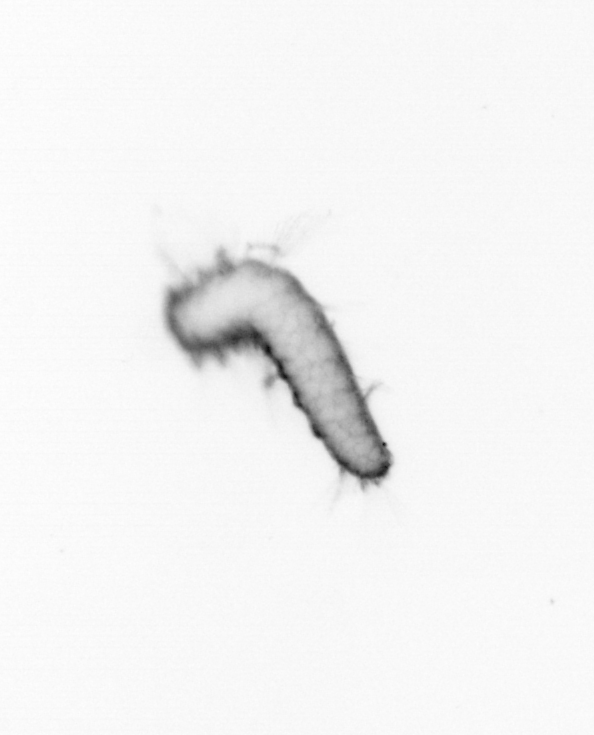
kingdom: Animalia
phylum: Annelida
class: Polychaeta
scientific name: Polychaeta
